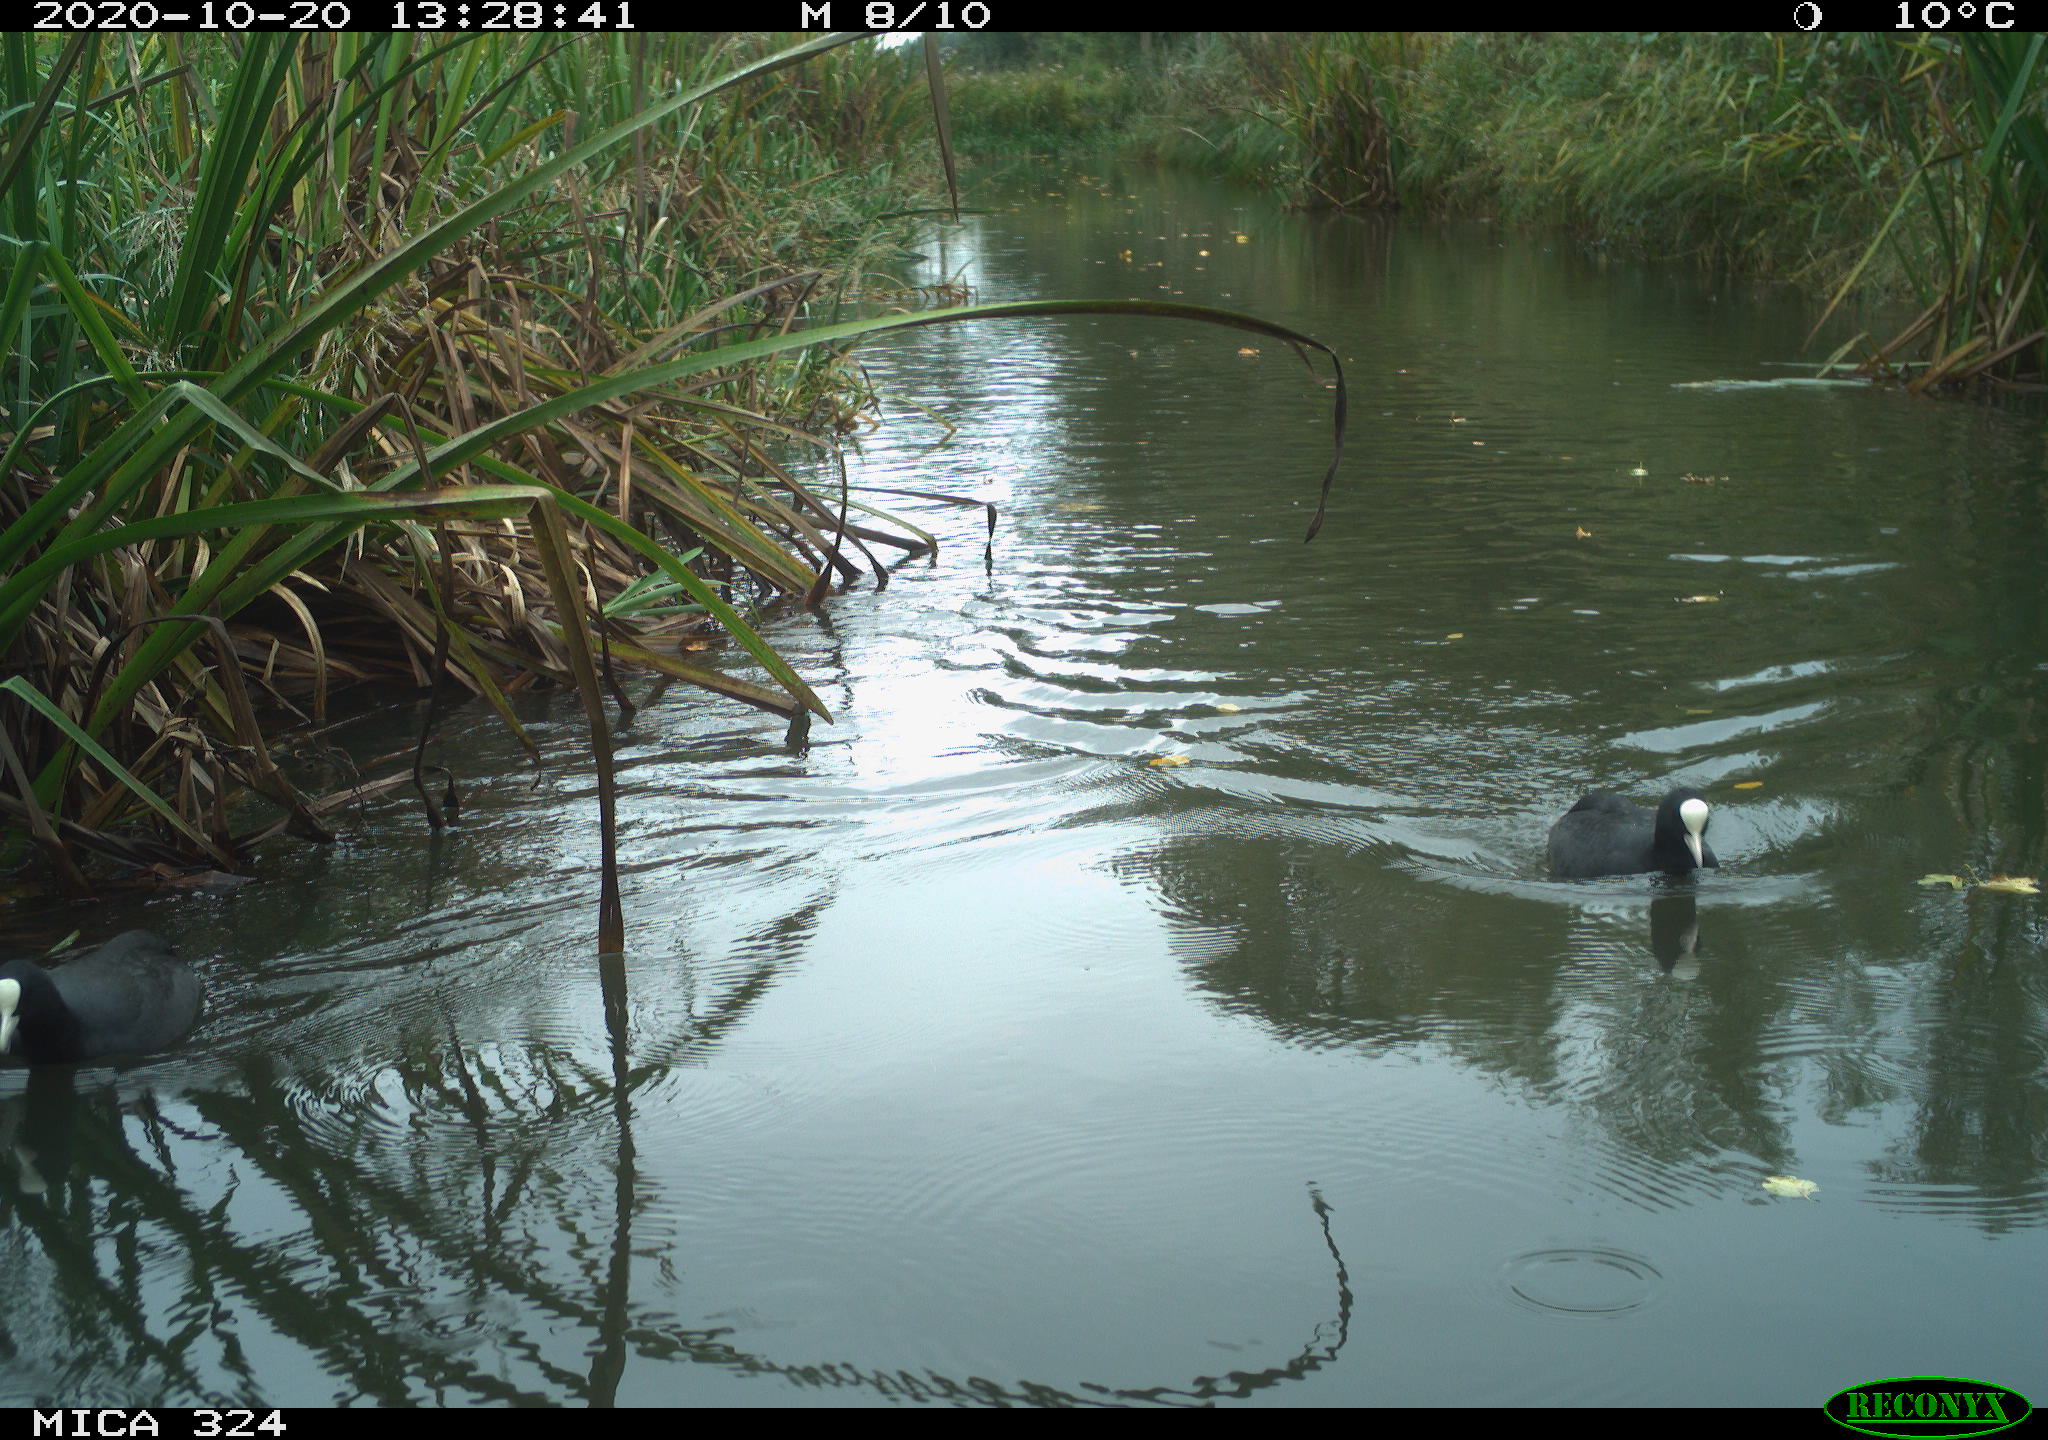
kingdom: Animalia
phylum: Chordata
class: Aves
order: Gruiformes
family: Rallidae
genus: Fulica
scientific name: Fulica atra
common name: Eurasian coot
